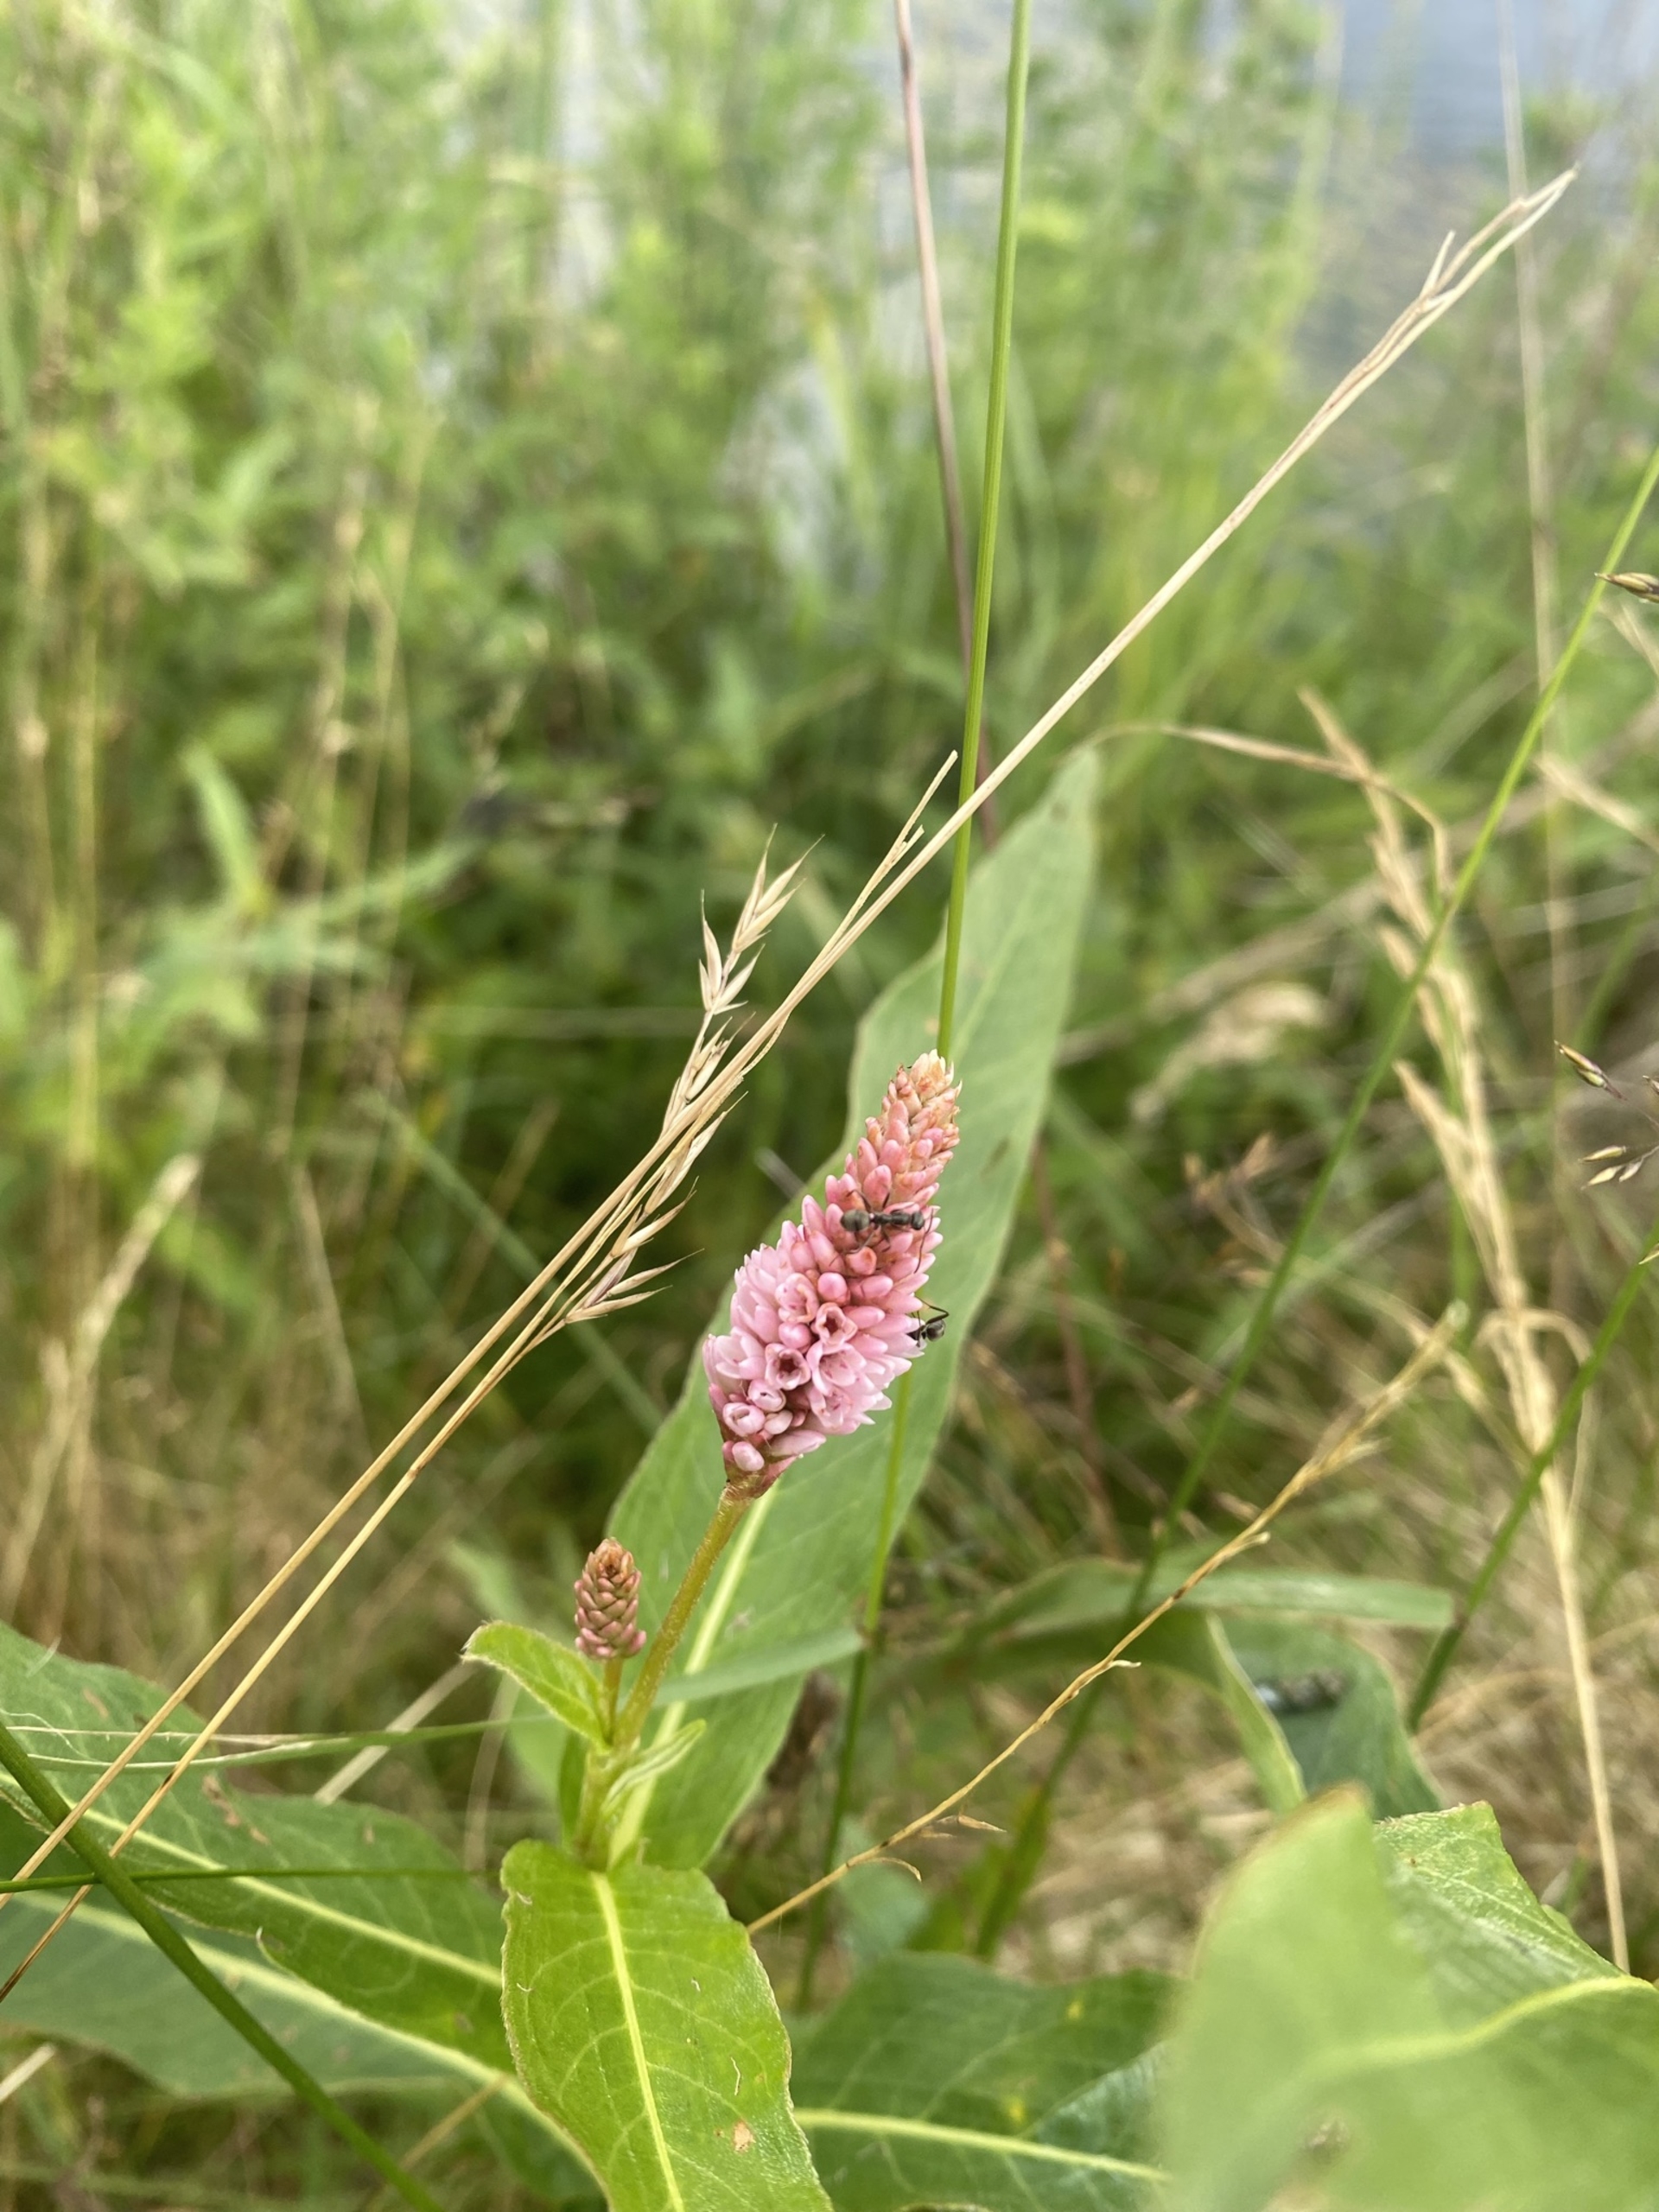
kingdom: Plantae
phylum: Tracheophyta
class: Magnoliopsida
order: Caryophyllales
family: Polygonaceae
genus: Persicaria
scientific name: Persicaria amphibia
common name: Vand-pileurt
